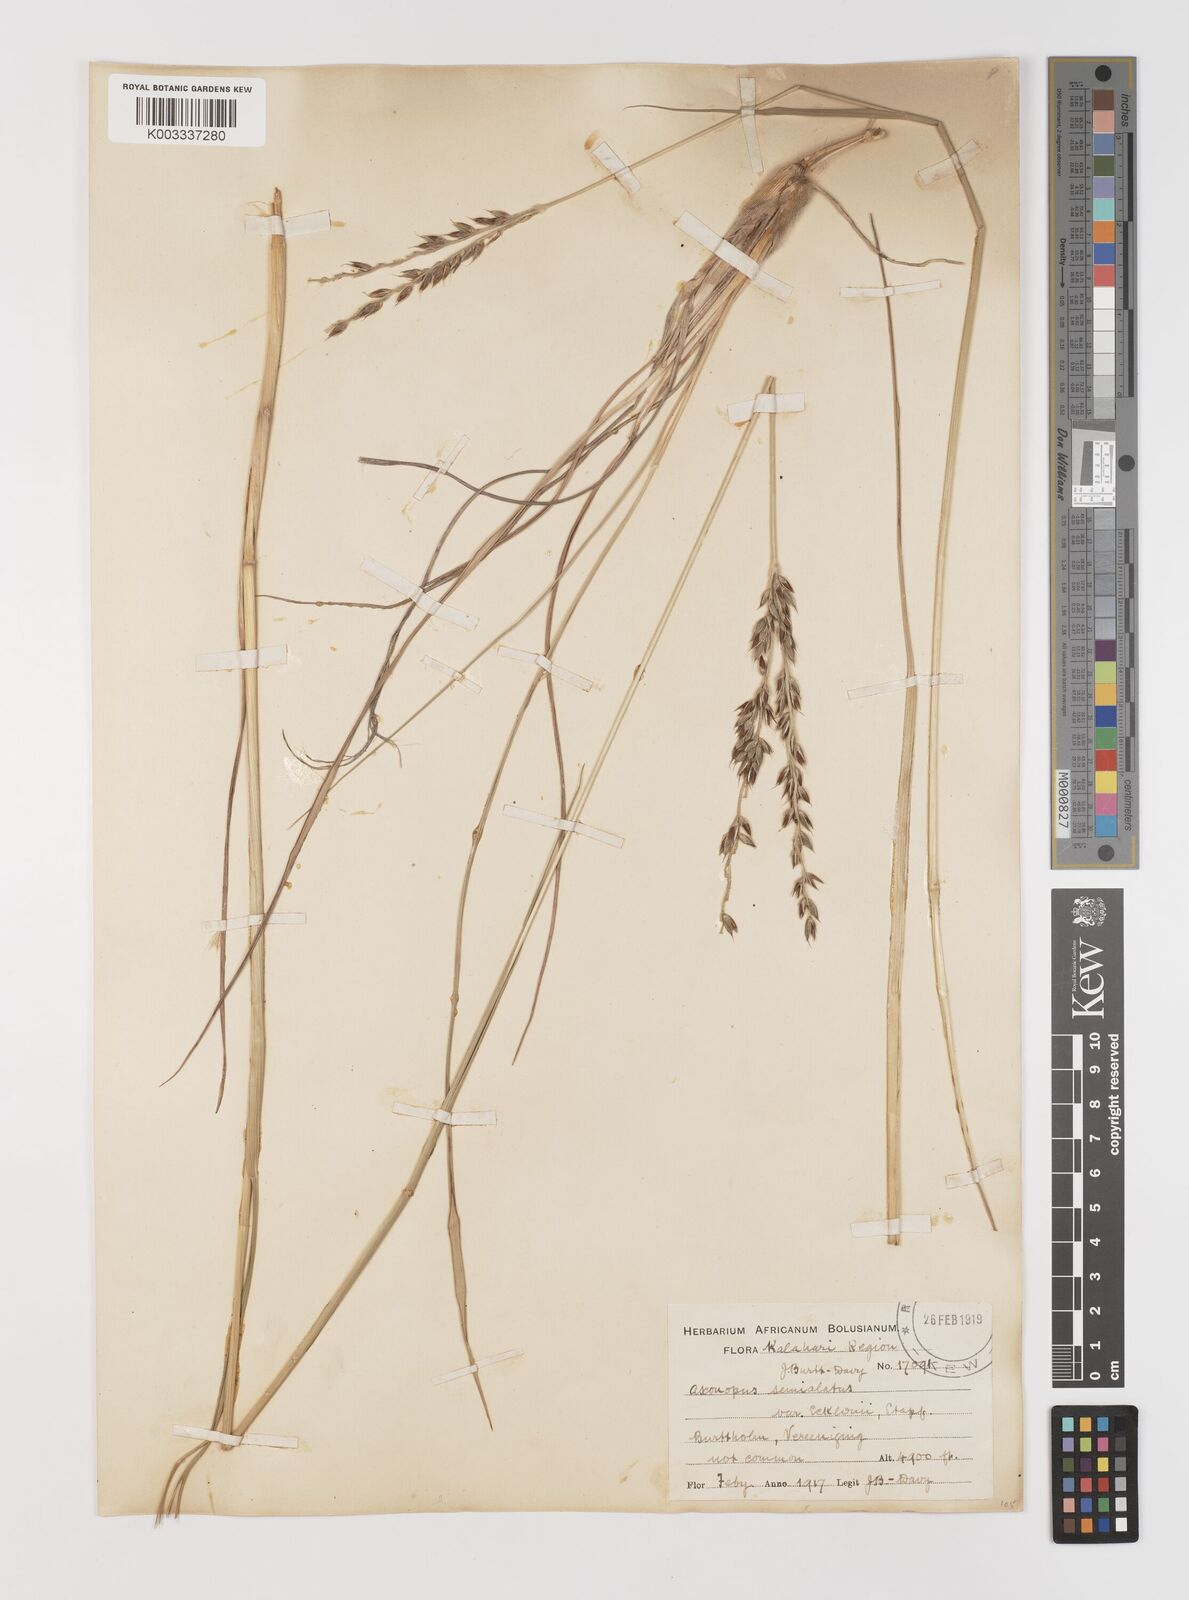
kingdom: Plantae
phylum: Tracheophyta
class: Liliopsida
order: Poales
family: Poaceae
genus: Alloteropsis
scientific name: Alloteropsis semialata
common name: Cockatoo grass
